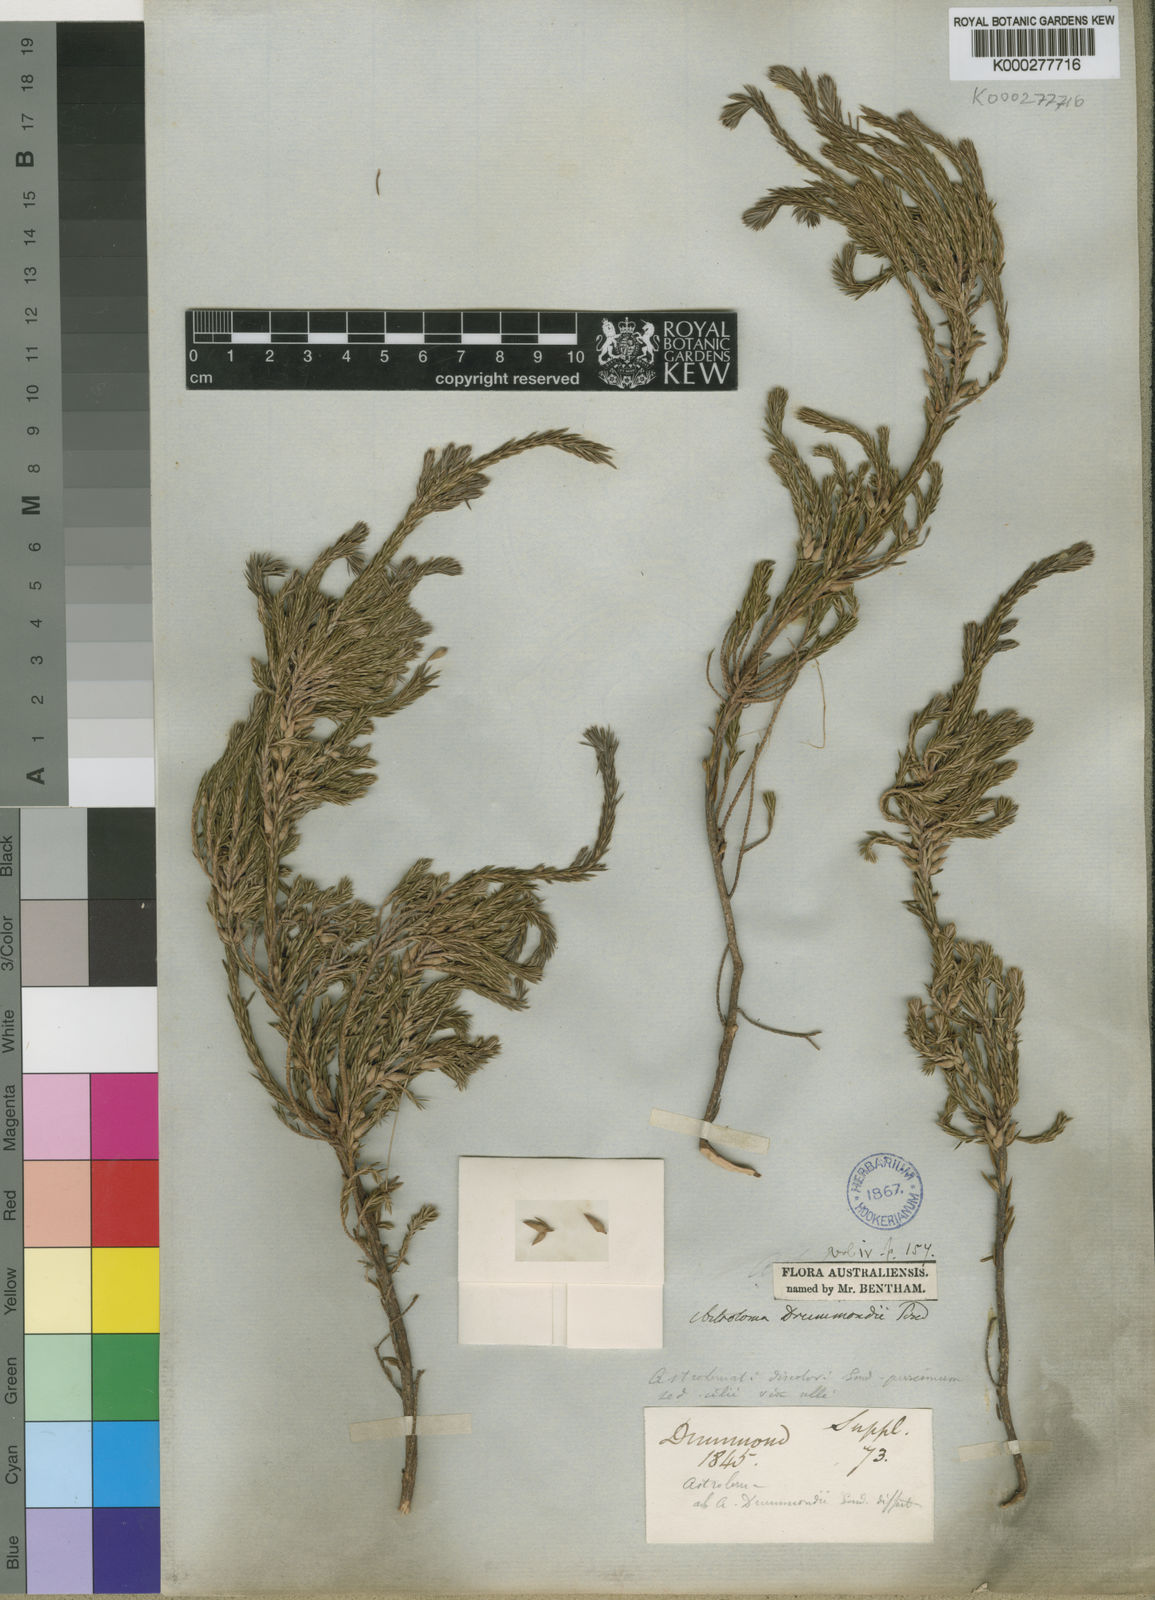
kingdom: Plantae
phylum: Tracheophyta
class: Magnoliopsida
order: Ericales
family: Ericaceae
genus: Styphelia
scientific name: Styphelia epacridis
